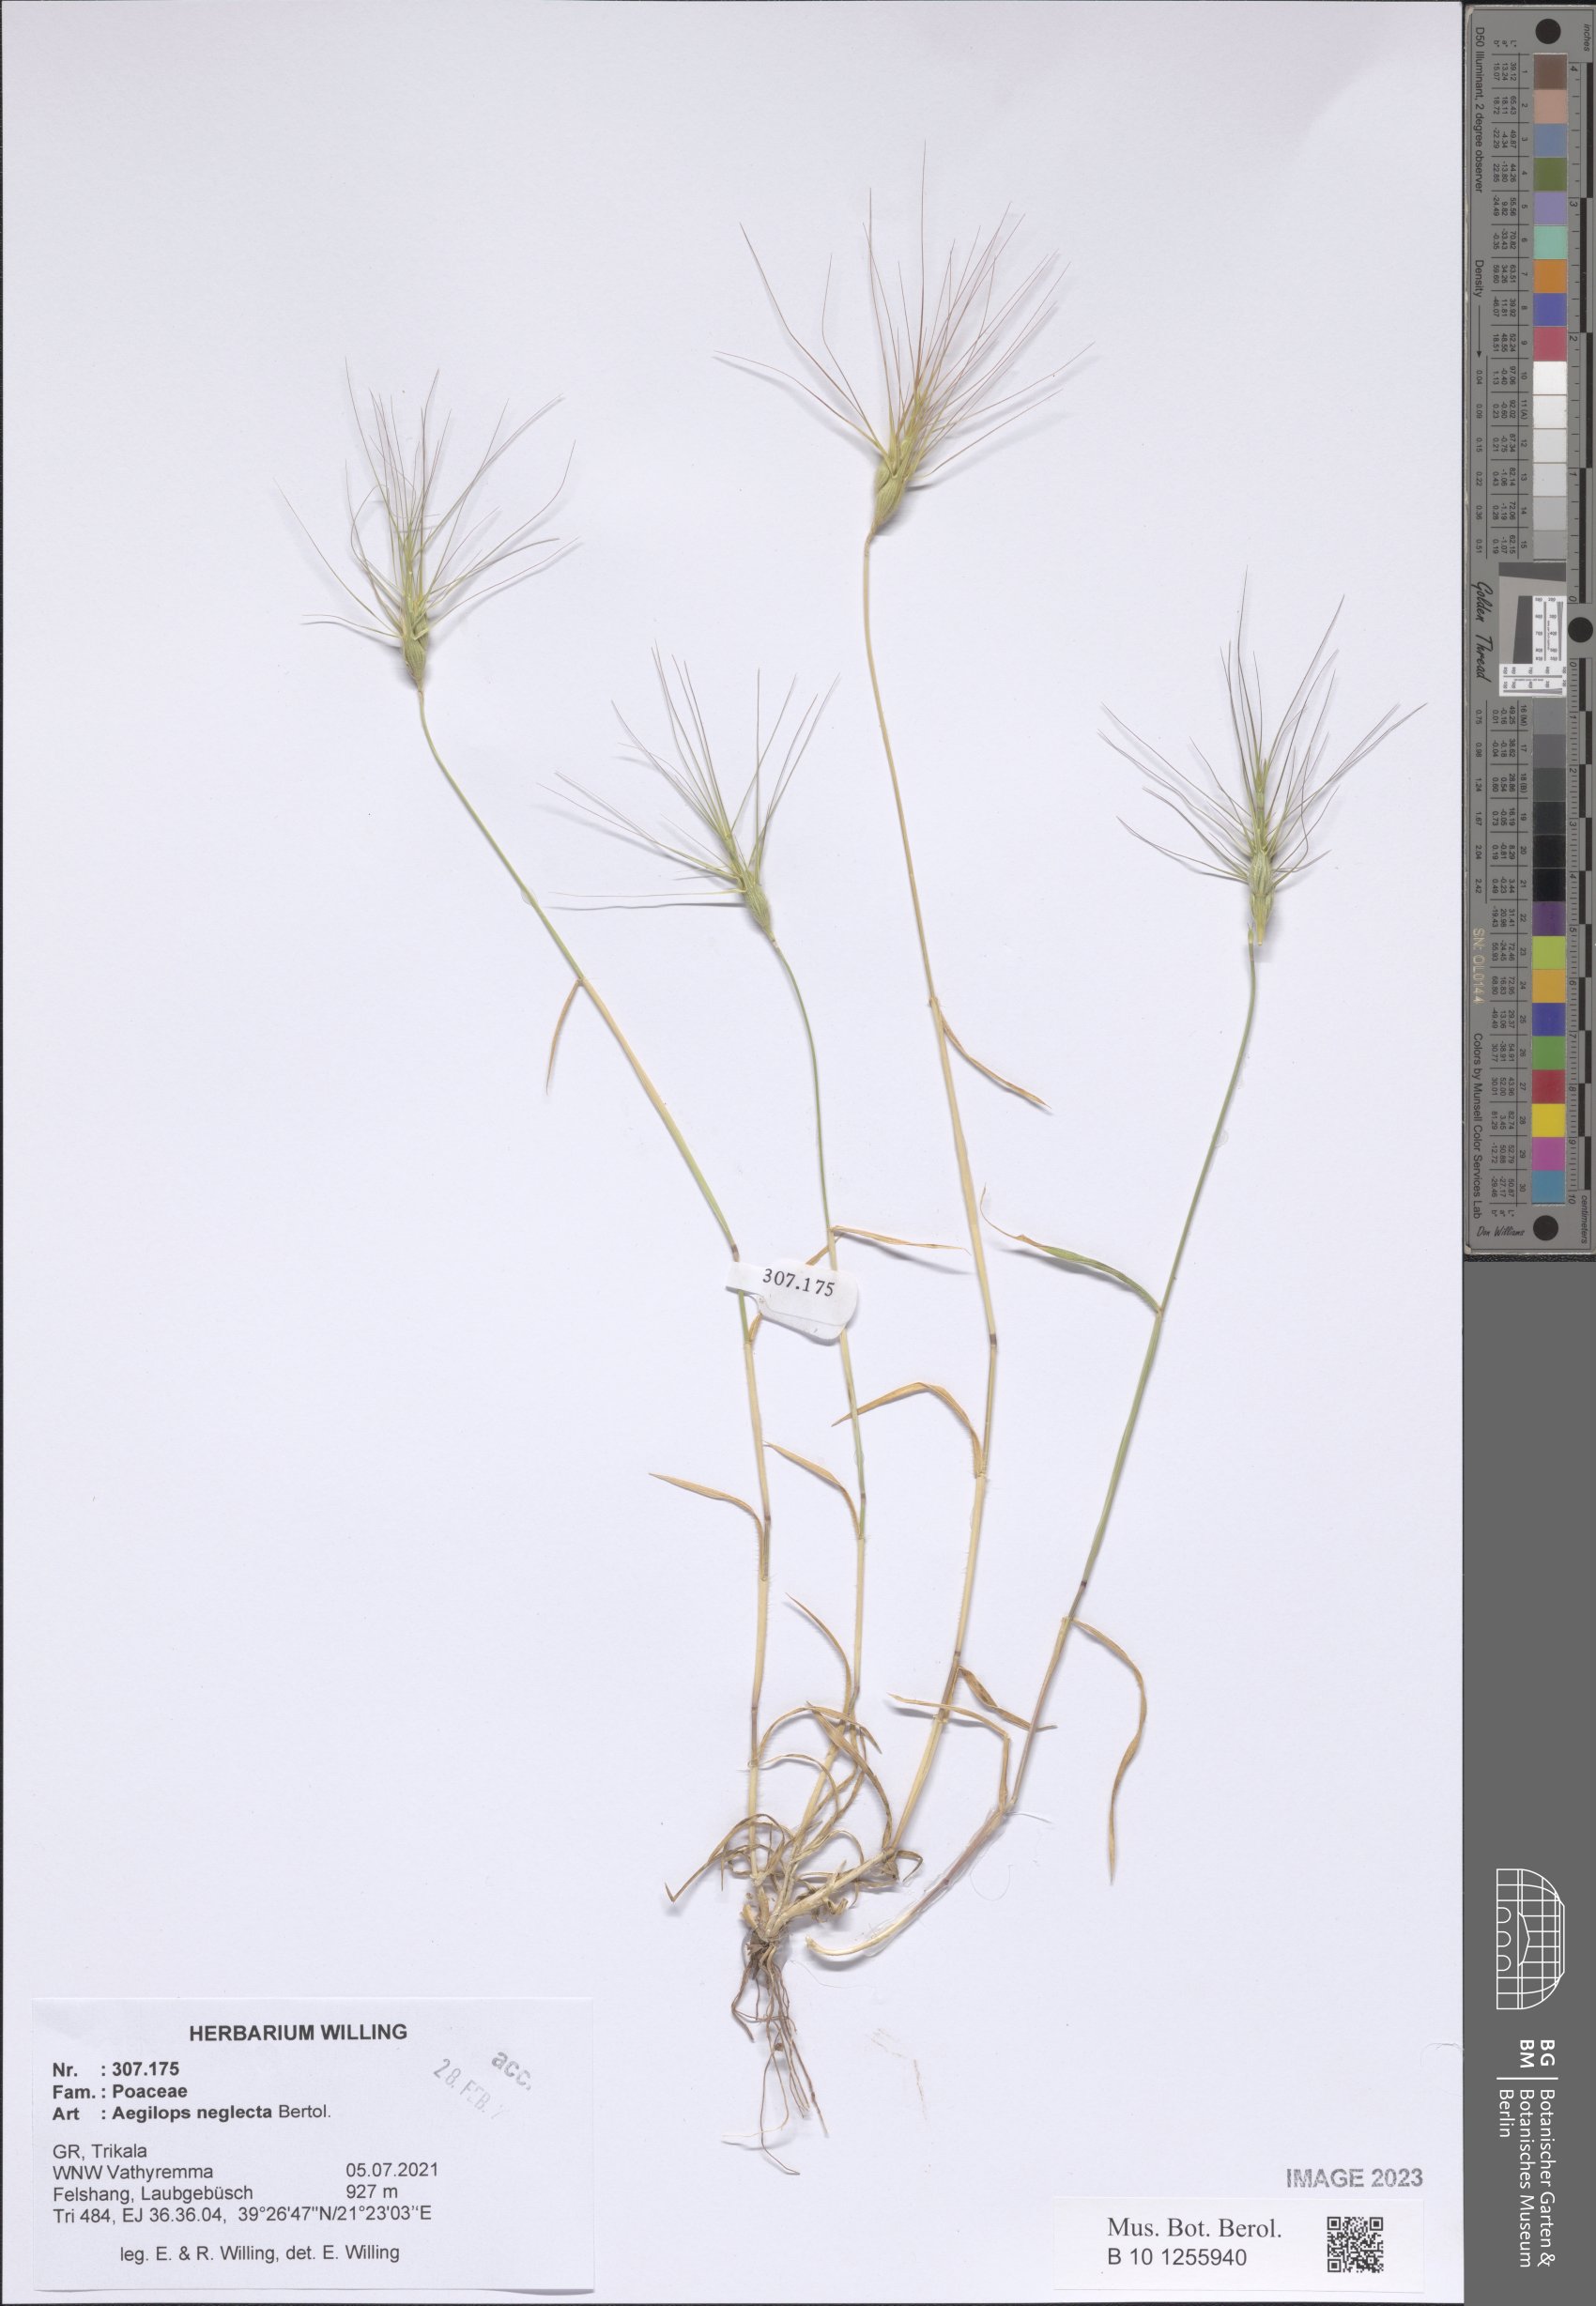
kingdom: Plantae
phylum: Tracheophyta
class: Liliopsida
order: Poales
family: Poaceae
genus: Aegilops
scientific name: Aegilops neglecta
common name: Three-awn goat grass
